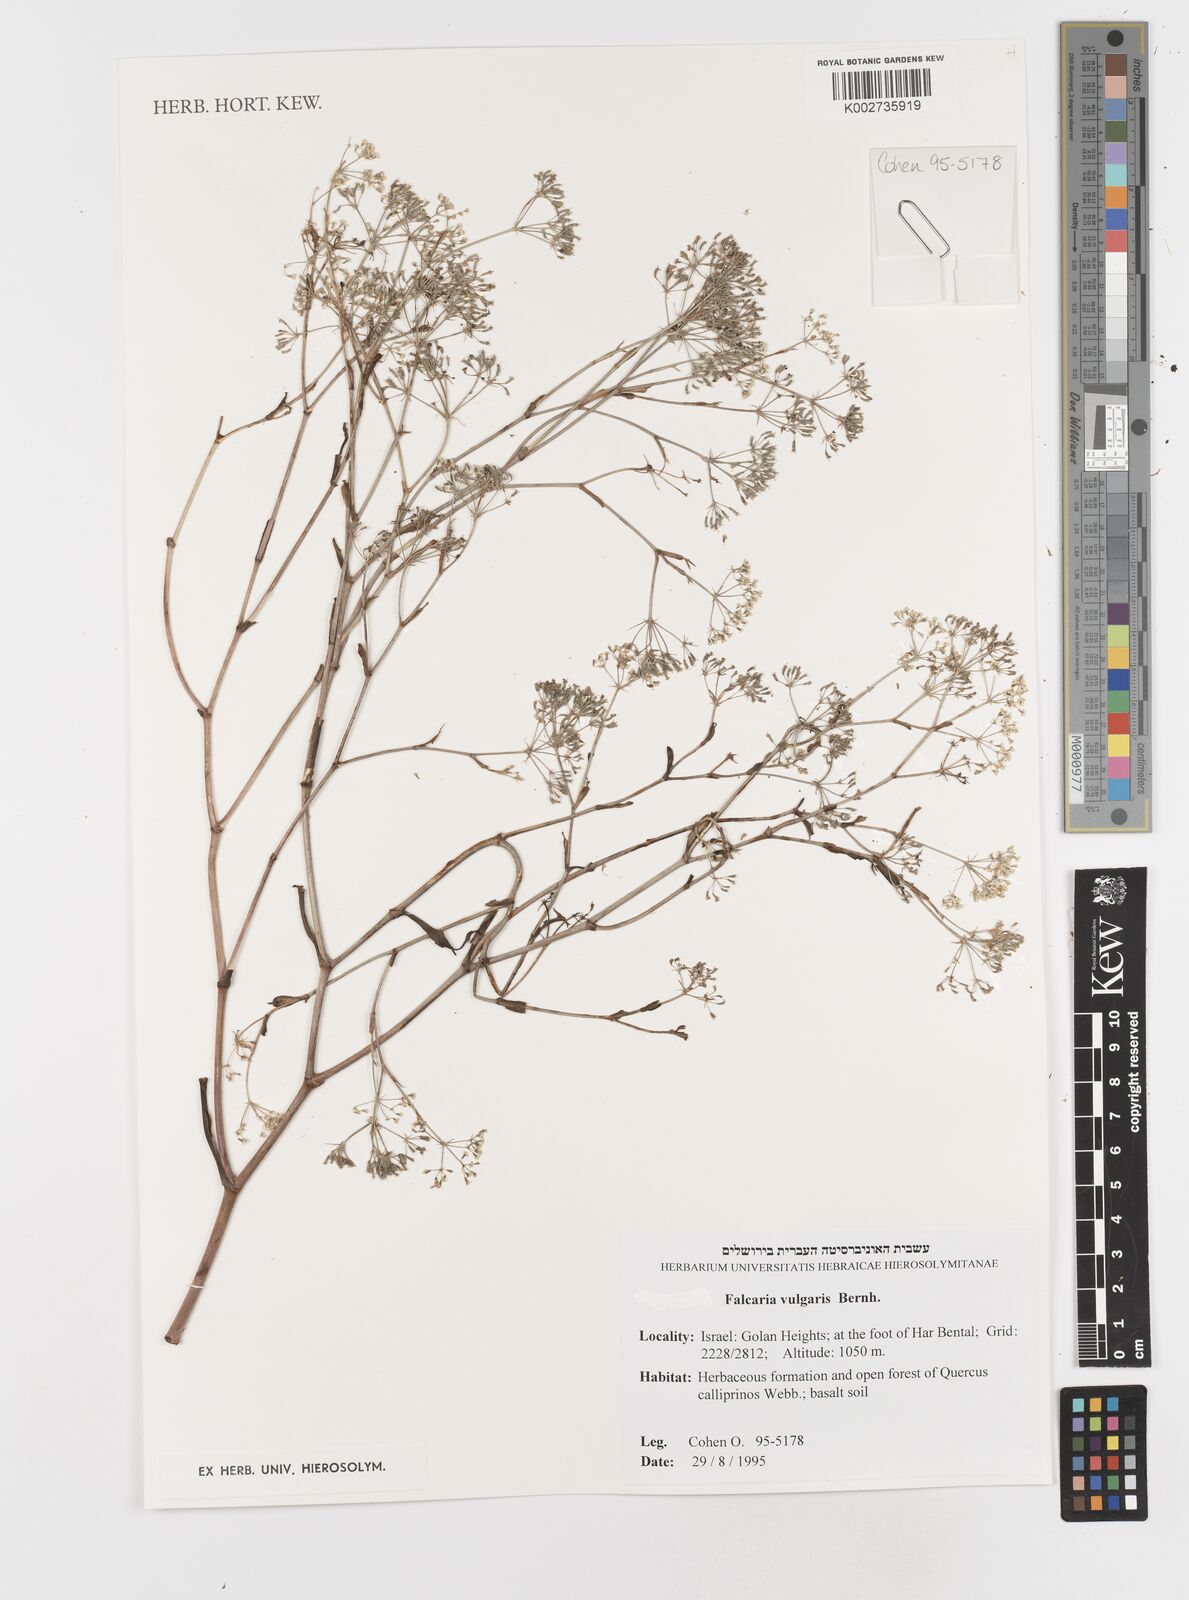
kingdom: Plantae
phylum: Tracheophyta
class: Magnoliopsida
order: Apiales
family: Apiaceae
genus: Falcaria
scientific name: Falcaria vulgaris
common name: Longleaf
